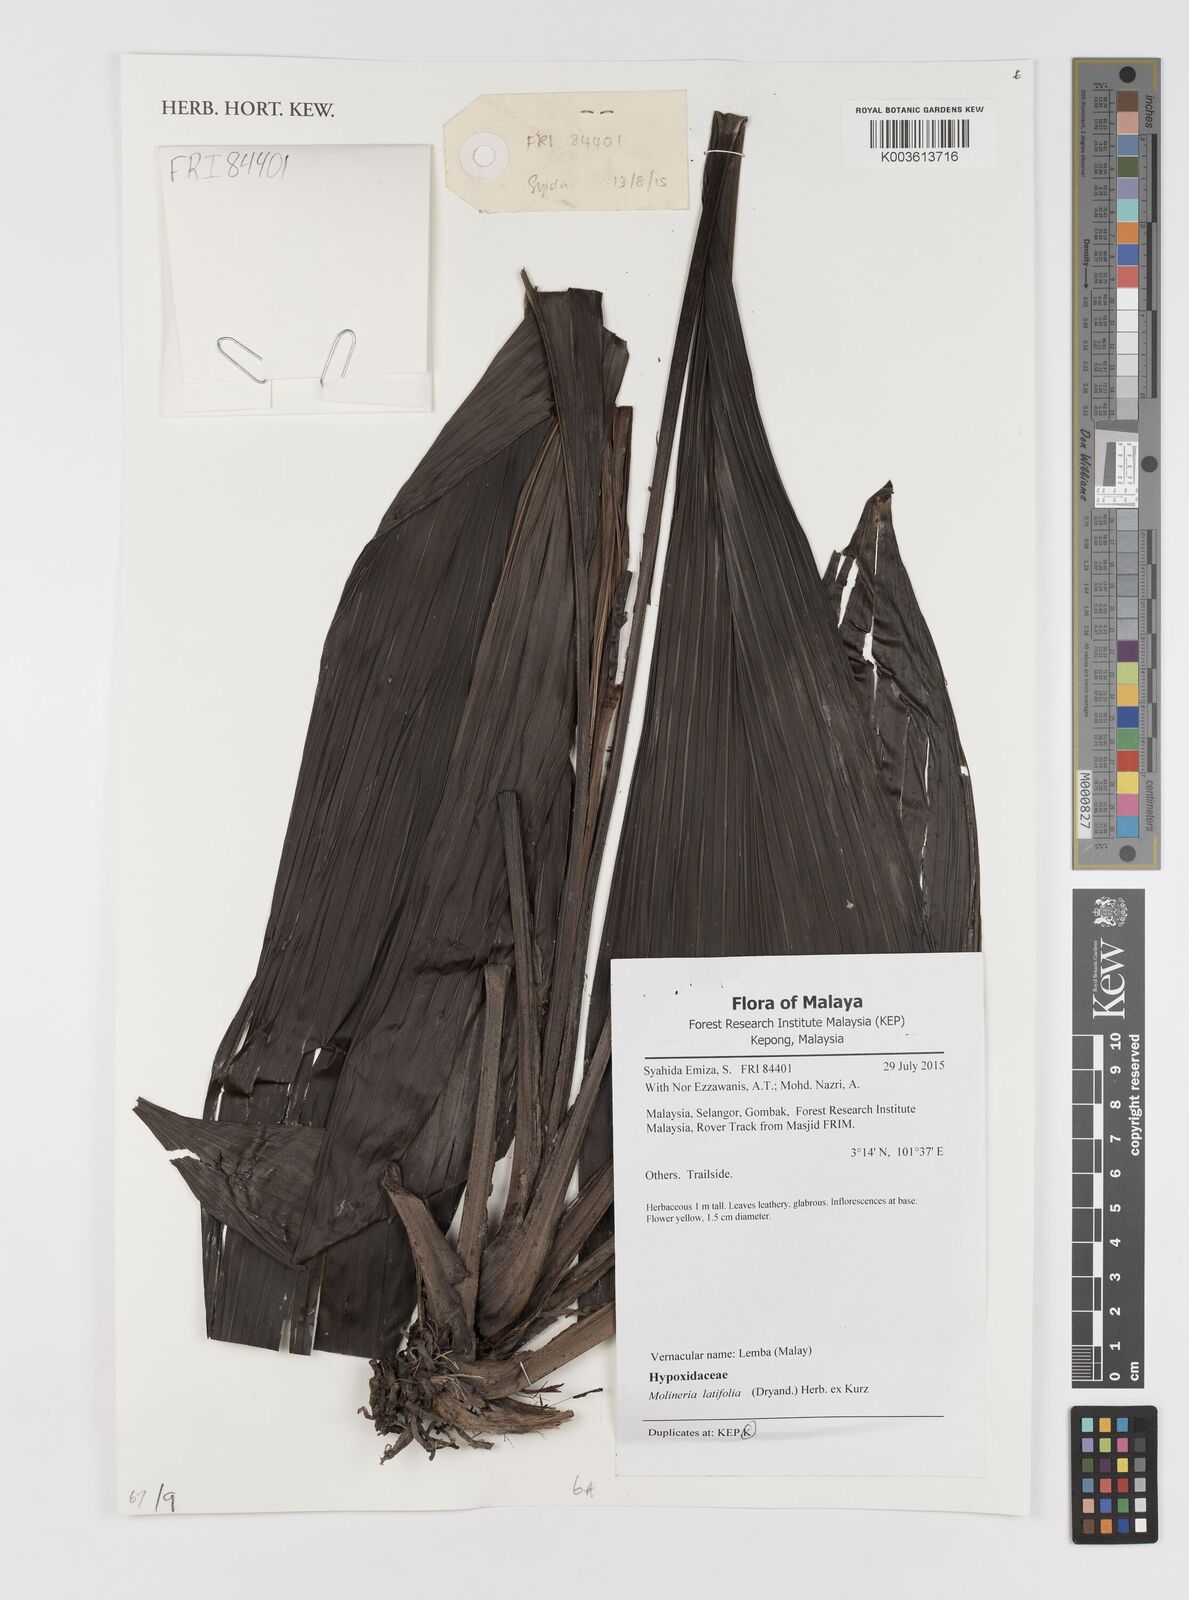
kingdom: Plantae
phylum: Tracheophyta
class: Liliopsida
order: Asparagales
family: Hypoxidaceae
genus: Curculigo
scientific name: Curculigo latifolia
